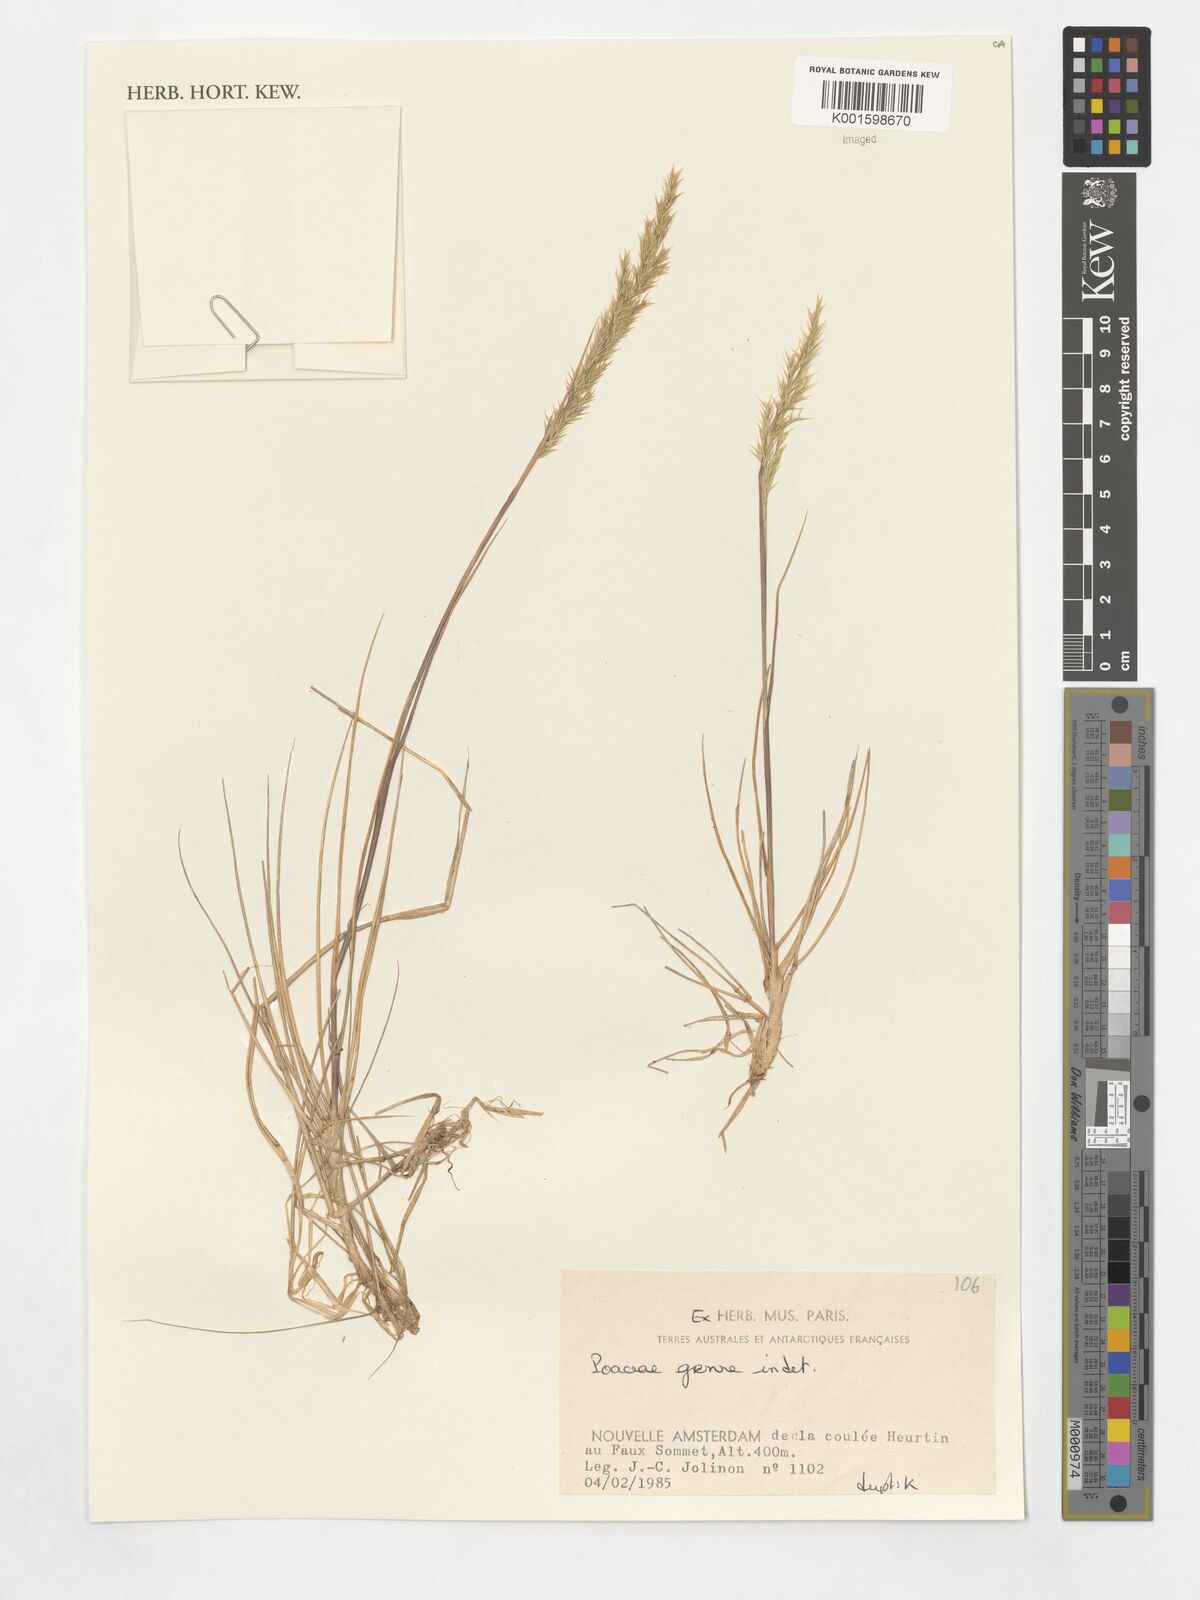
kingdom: Plantae
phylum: Tracheophyta
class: Liliopsida
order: Poales
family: Poaceae
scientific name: Poaceae
